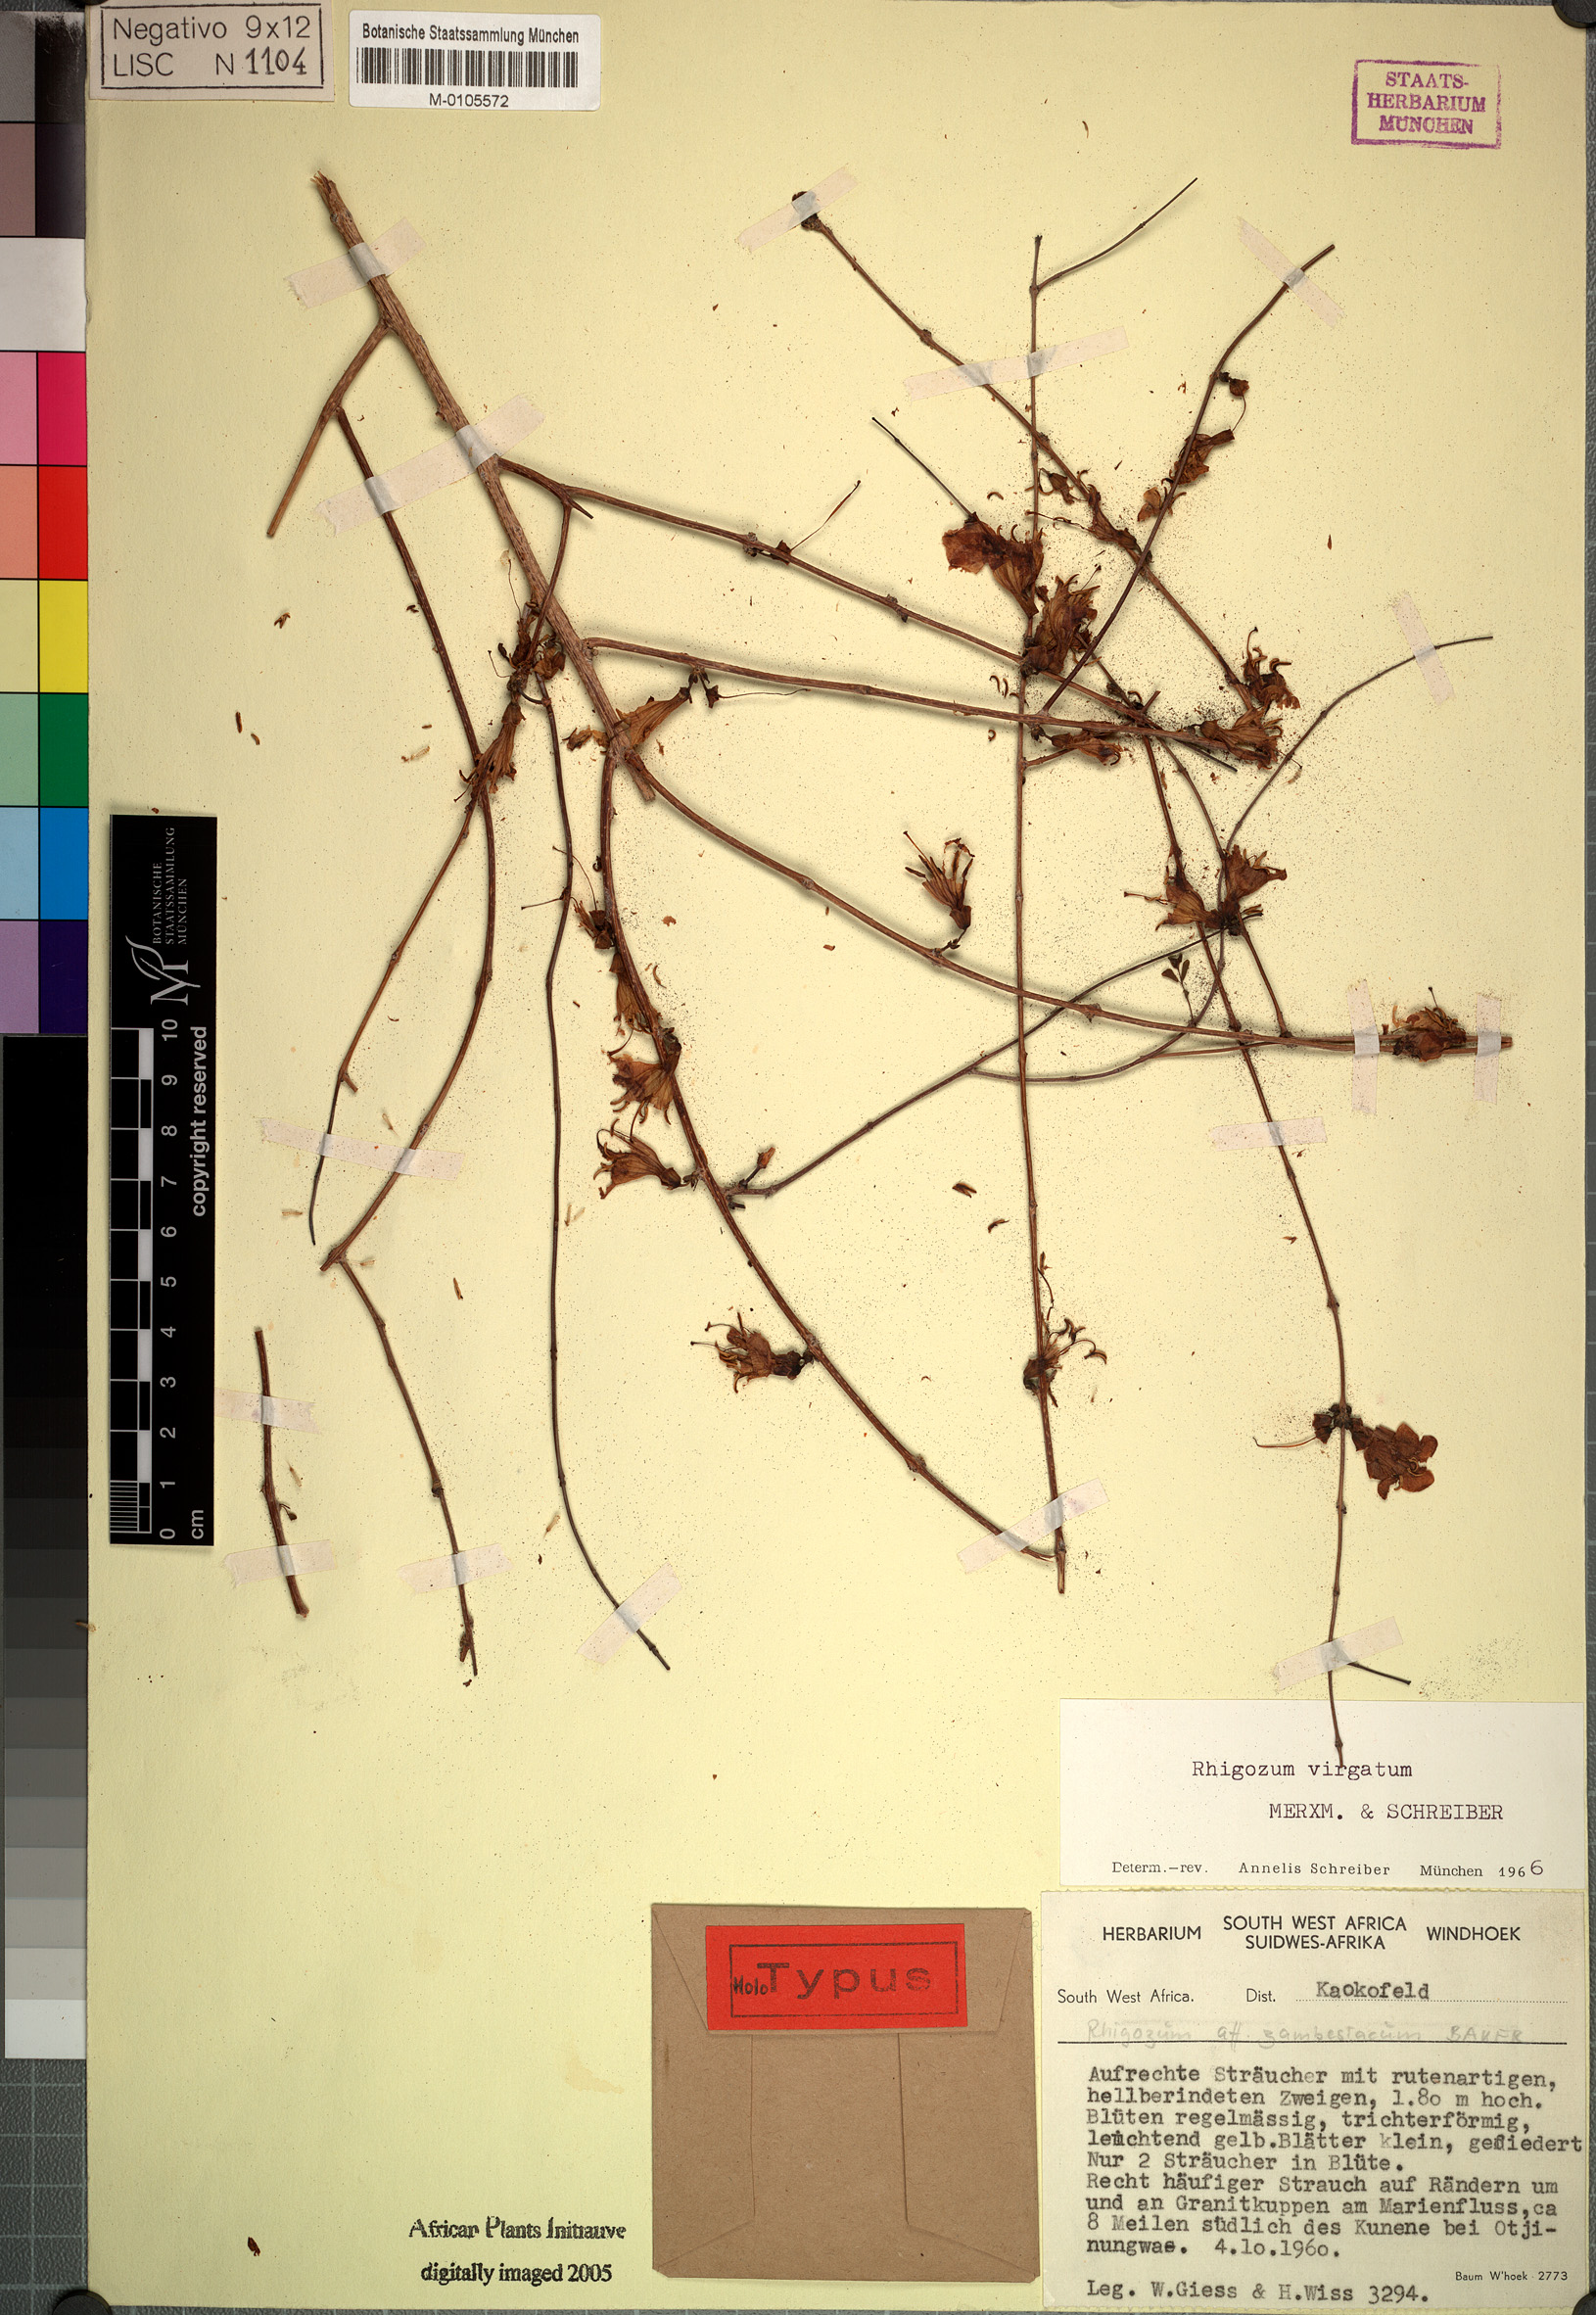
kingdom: Plantae
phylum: Tracheophyta
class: Magnoliopsida
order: Lamiales
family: Bignoniaceae
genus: Rhigozum
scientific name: Rhigozum virgatum
